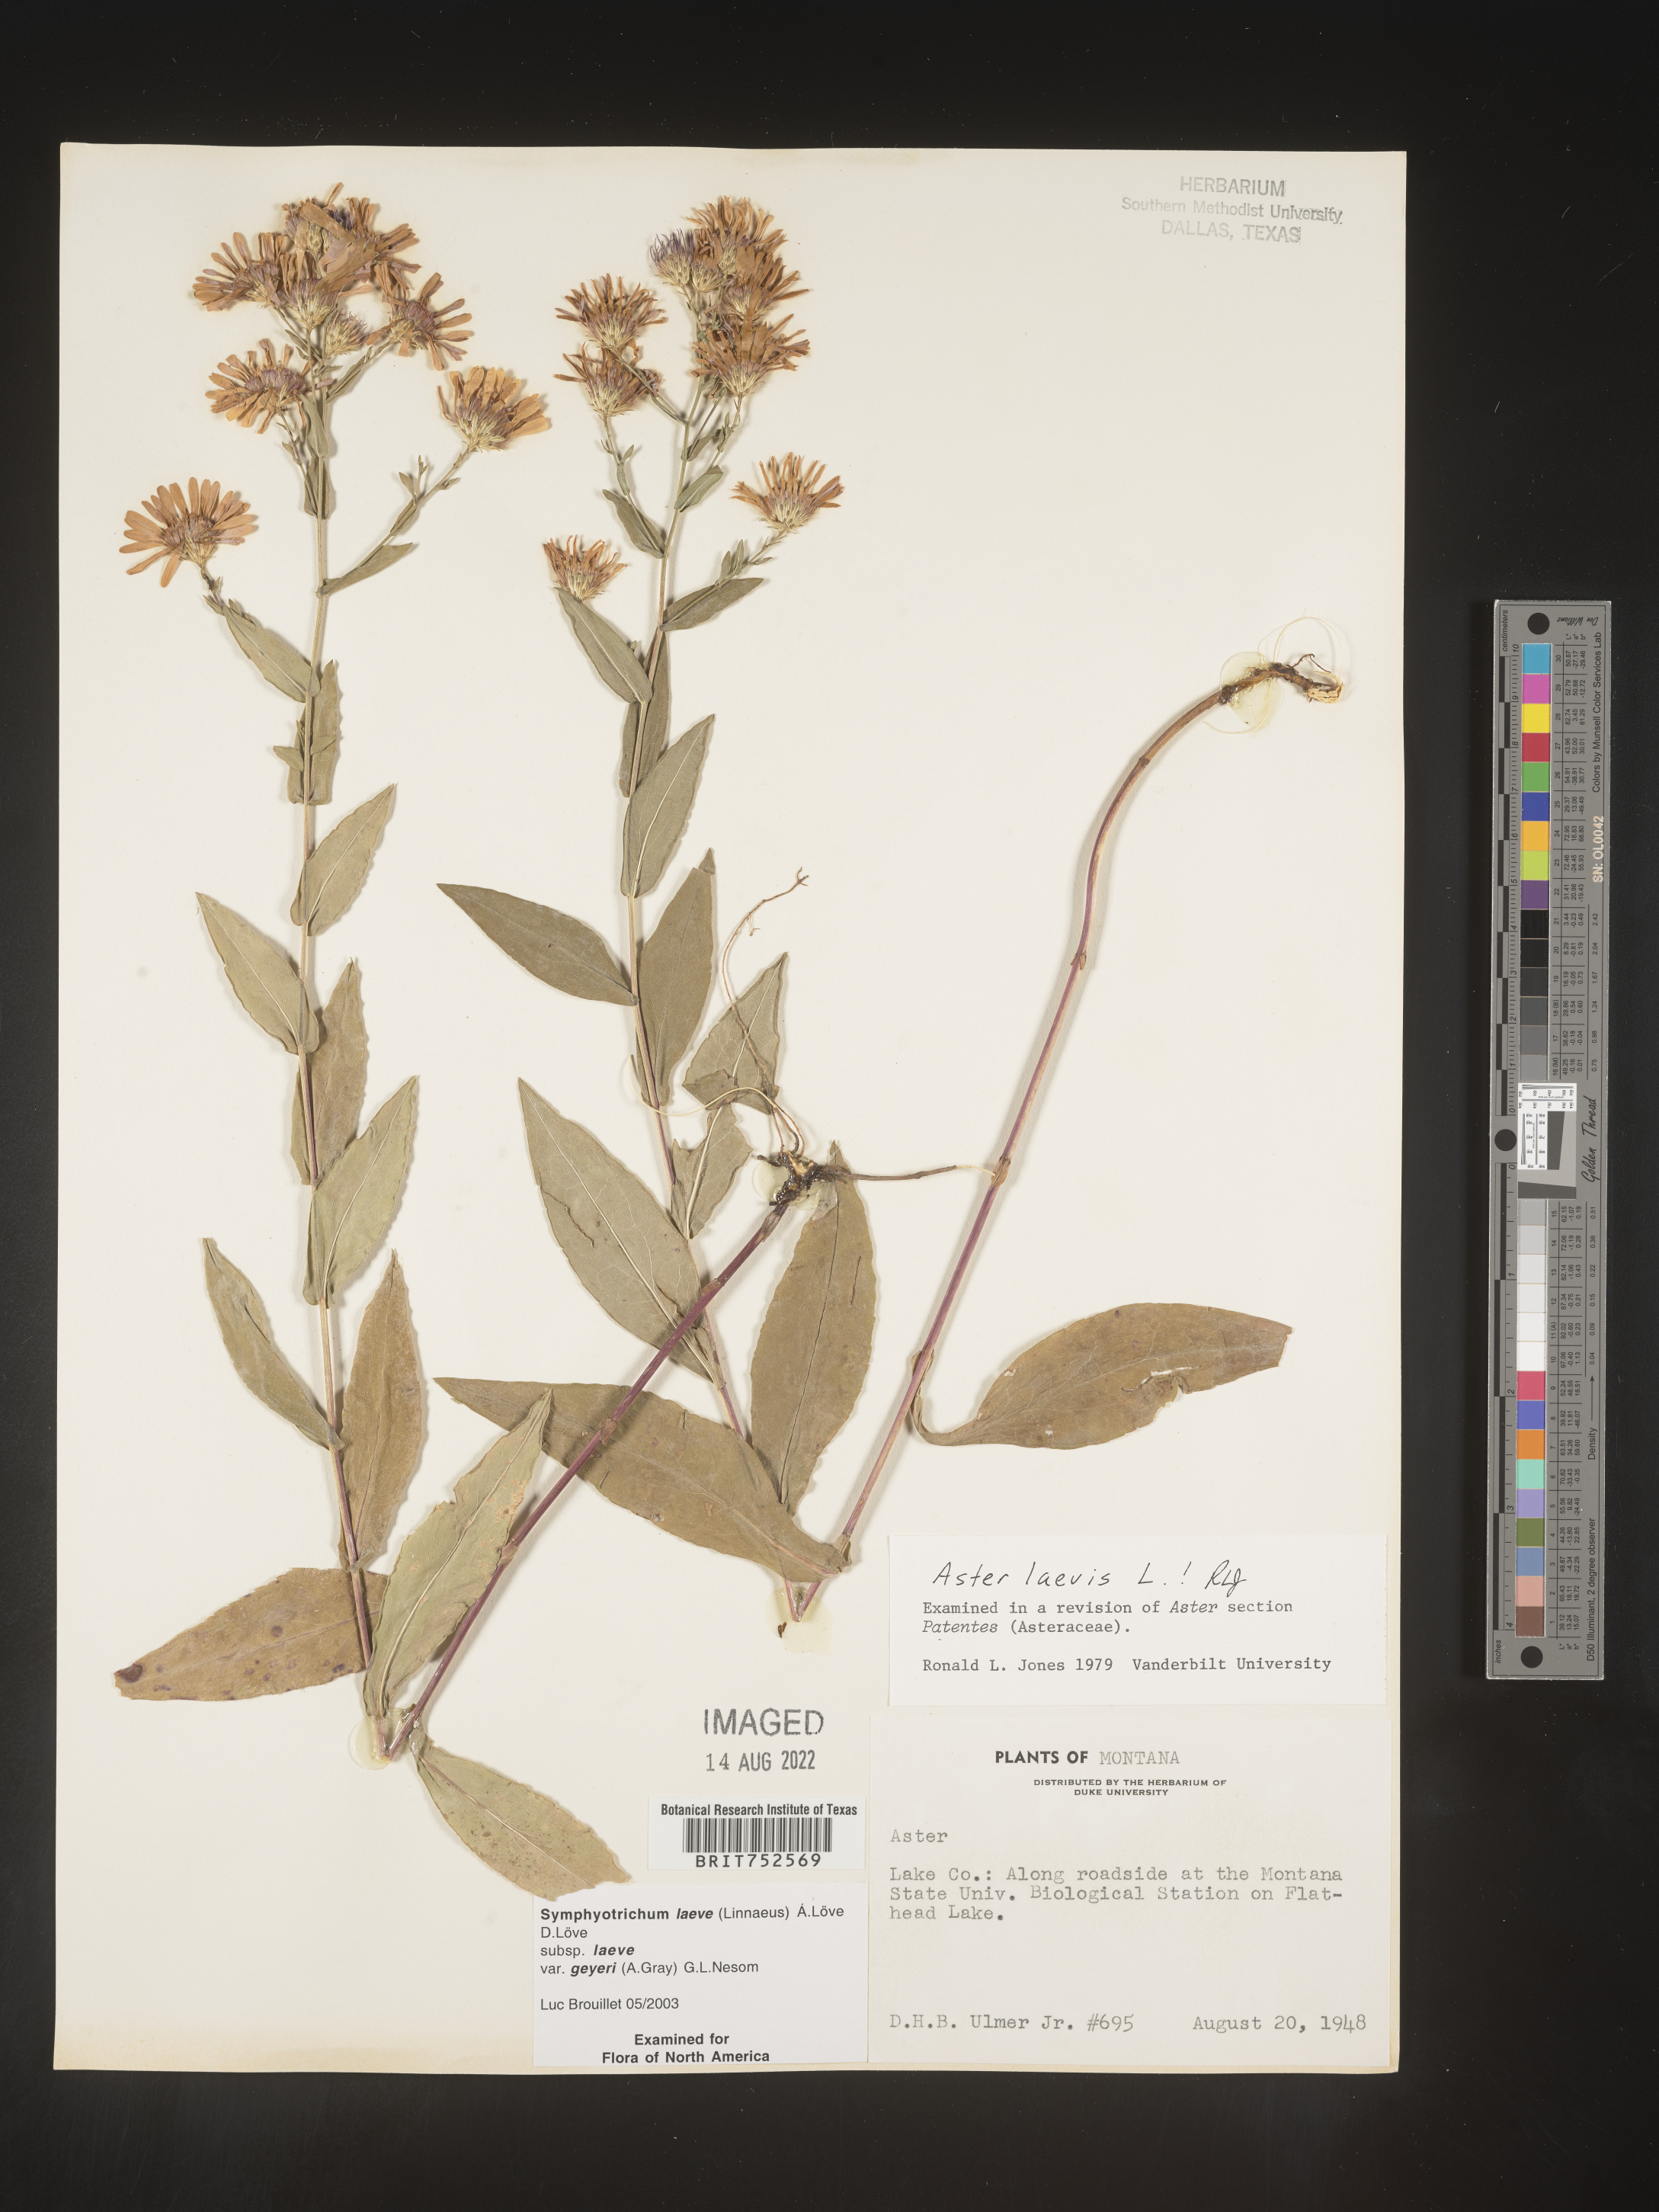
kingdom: Plantae
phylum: Tracheophyta
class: Magnoliopsida
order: Asterales
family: Asteraceae
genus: Symphyotrichum
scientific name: Symphyotrichum laeve
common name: Glaucous aster
